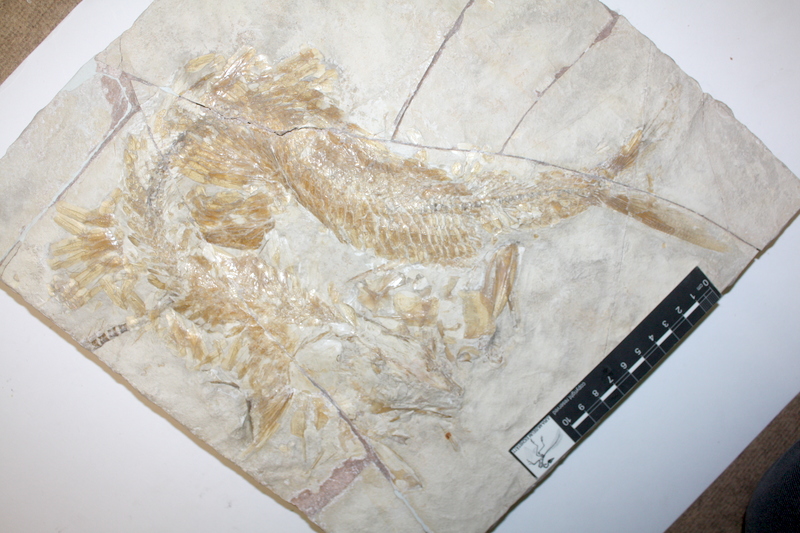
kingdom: Animalia
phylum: Chordata
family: Aspidorhynchidae
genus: Aspidorhynchus
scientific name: Aspidorhynchus acutirostris
